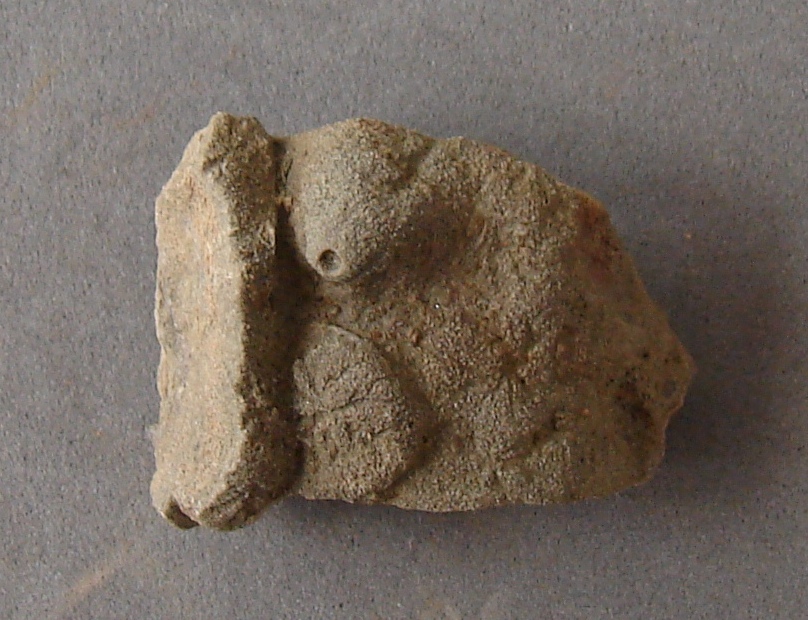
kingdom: Animalia
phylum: Porifera
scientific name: Porifera
